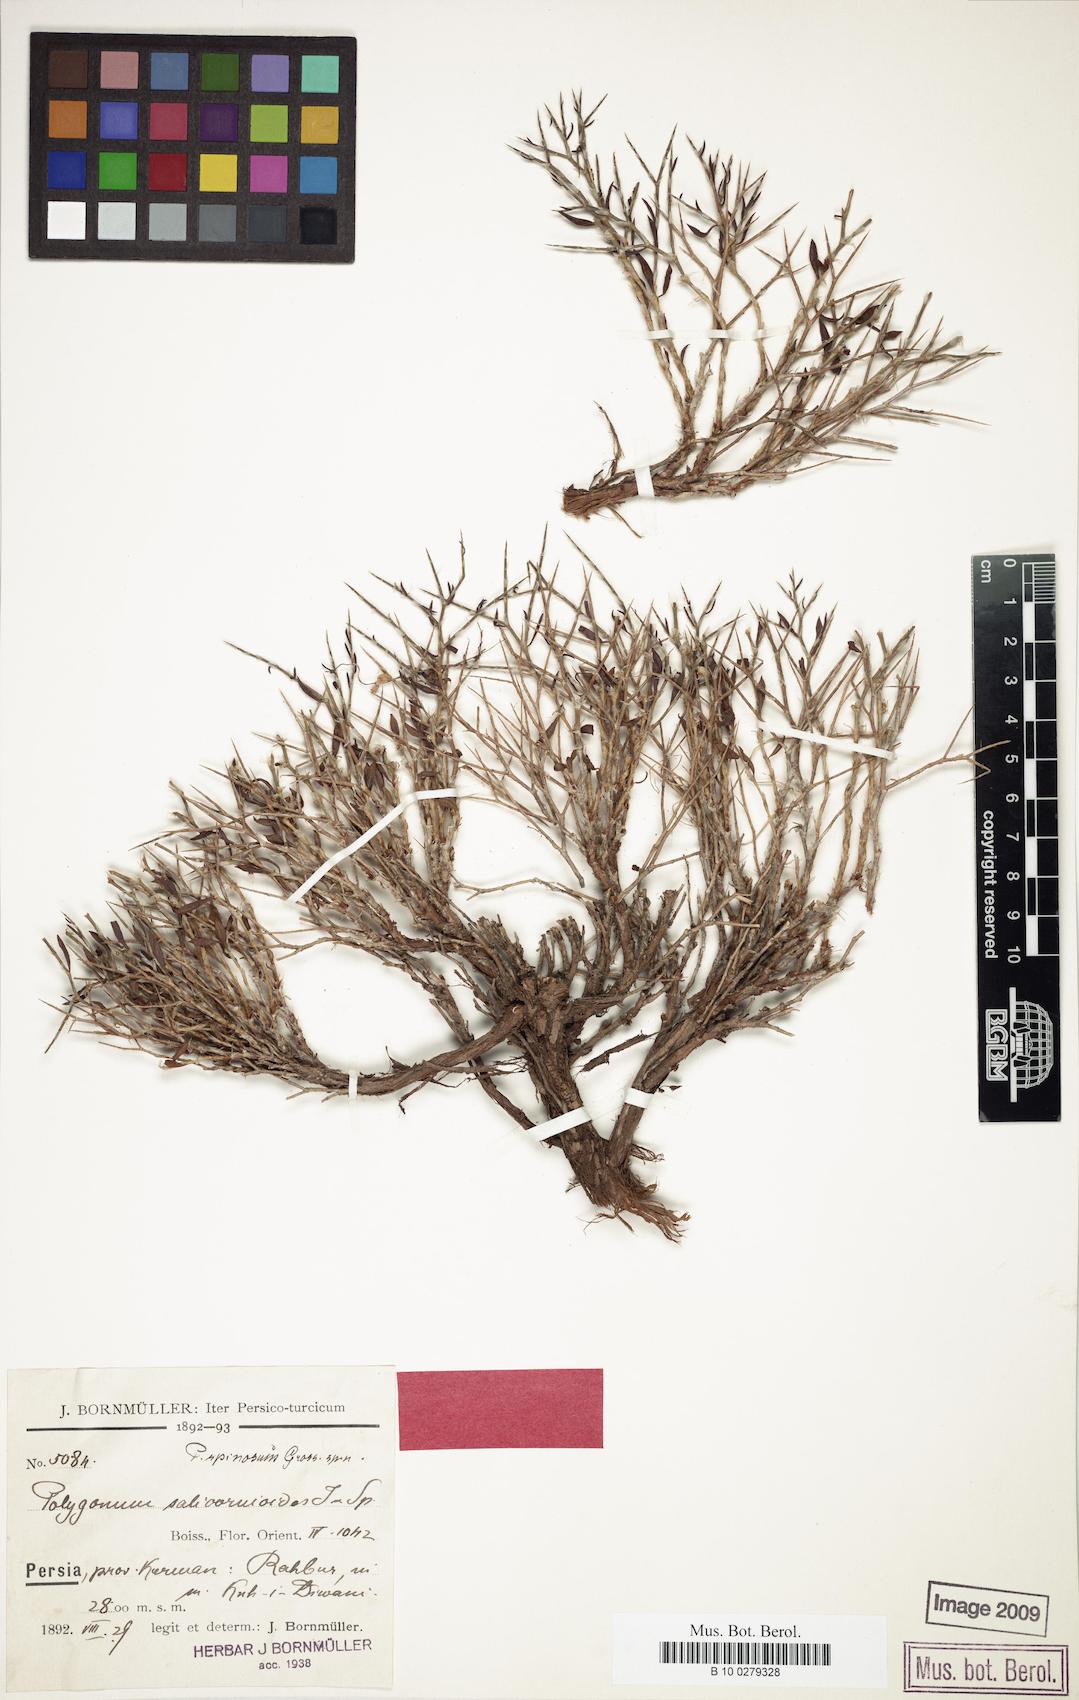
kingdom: Plantae
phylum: Tracheophyta
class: Magnoliopsida
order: Caryophyllales
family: Polygonaceae
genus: Atraphaxis
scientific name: Atraphaxis kermanica
